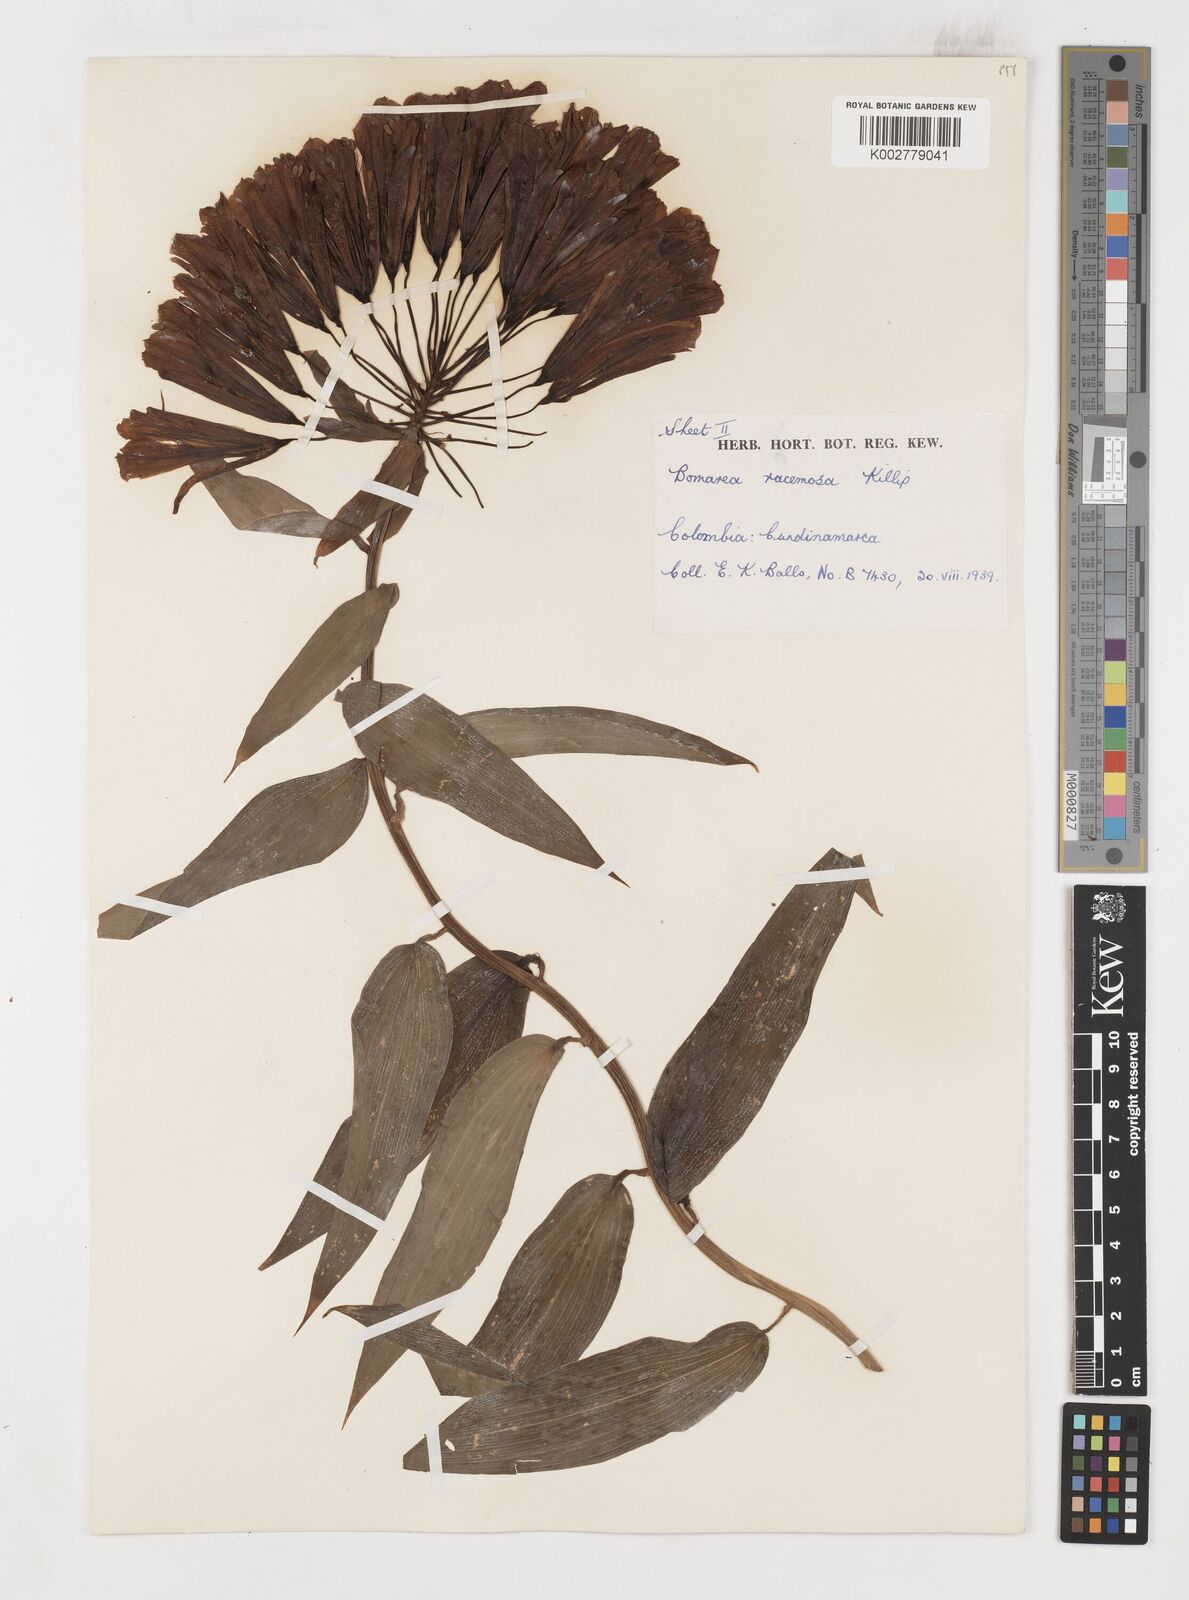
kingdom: Plantae
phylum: Tracheophyta
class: Liliopsida
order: Liliales
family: Alstroemeriaceae
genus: Bomarea
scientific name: Bomarea patinii
